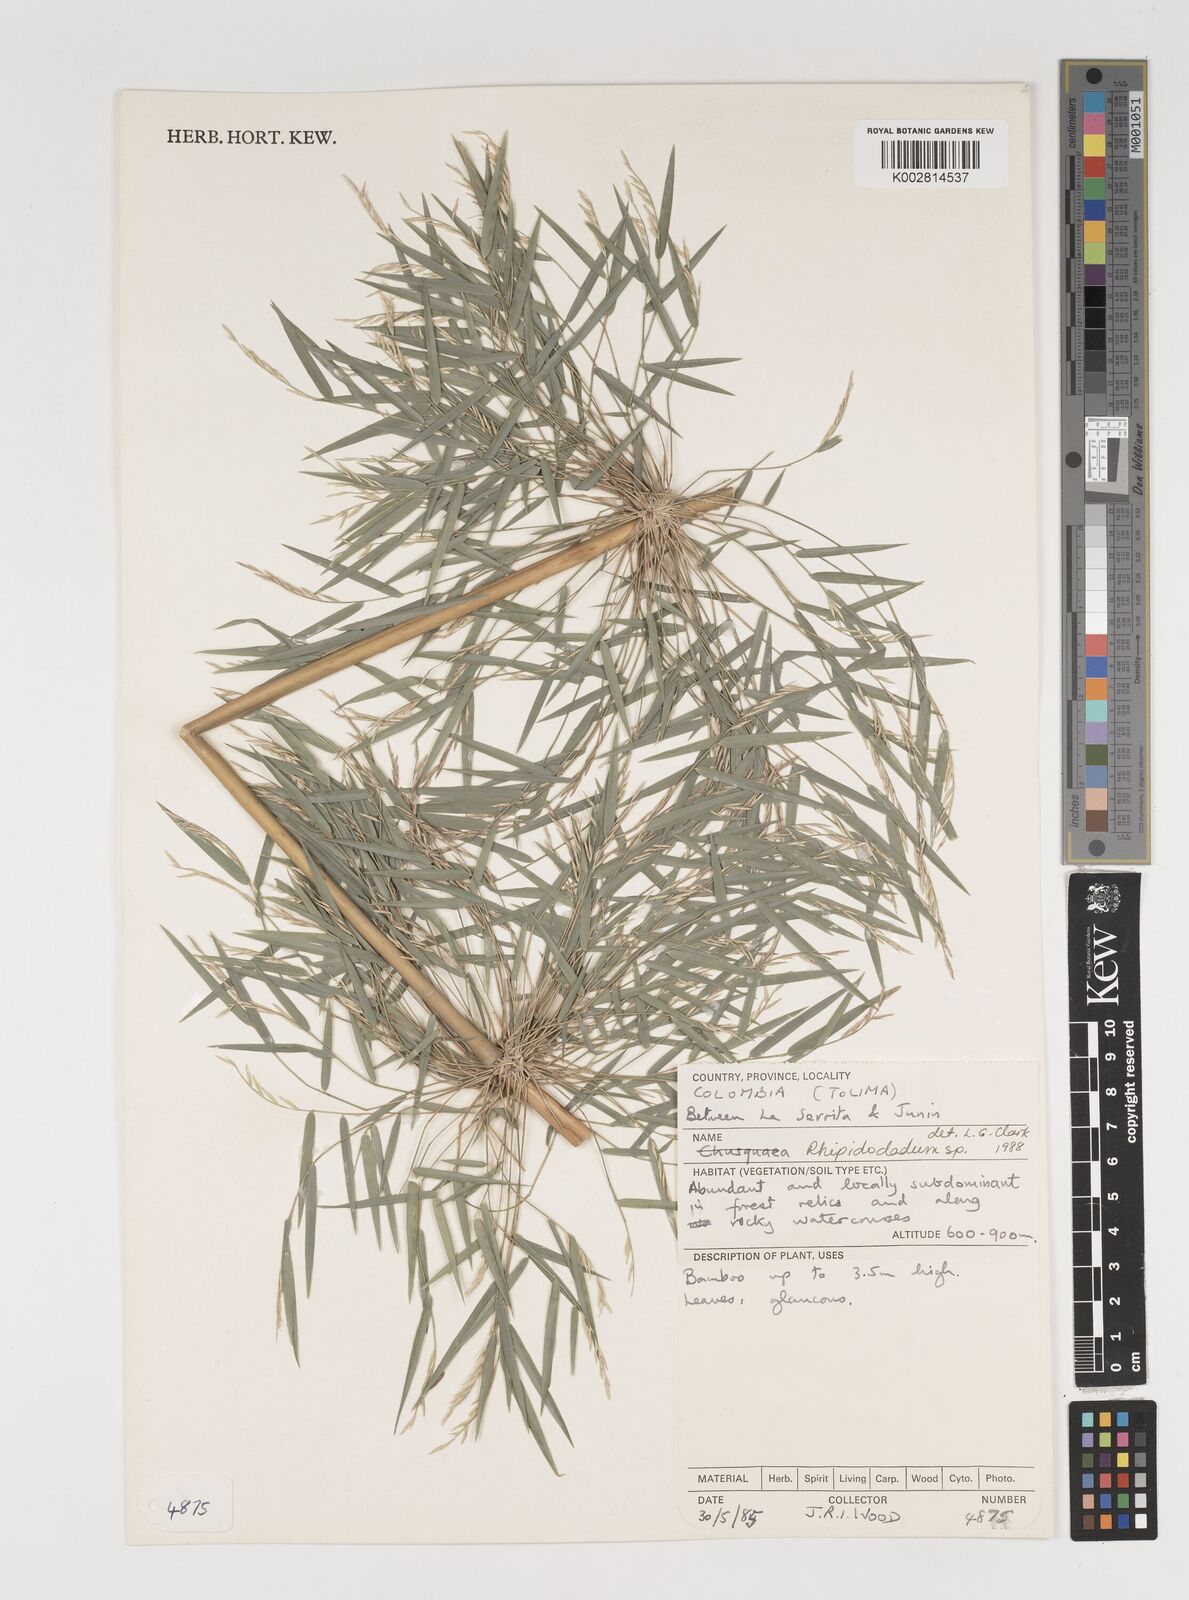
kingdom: Plantae
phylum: Tracheophyta
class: Liliopsida
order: Poales
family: Poaceae
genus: Rhipidocladum
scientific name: Rhipidocladum
